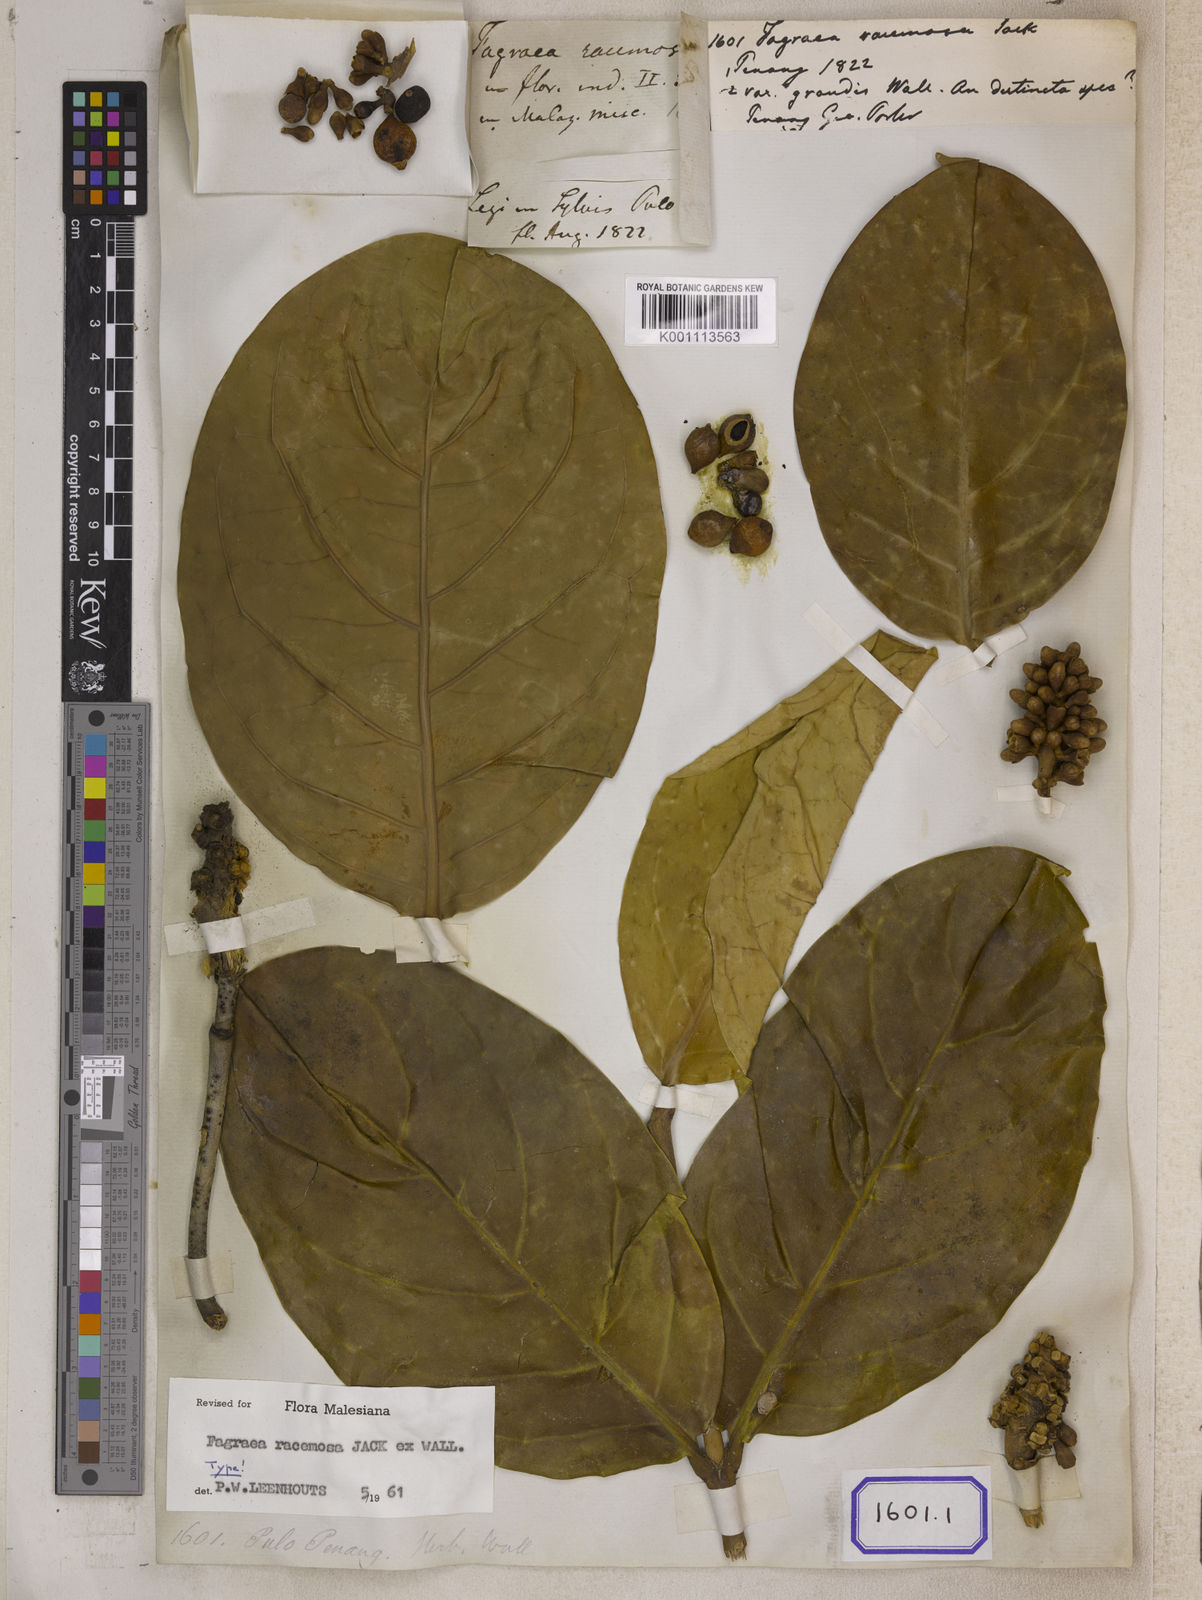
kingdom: Plantae
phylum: Tracheophyta
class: Magnoliopsida
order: Gentianales
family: Gentianaceae
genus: Utania
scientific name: Utania racemosa
